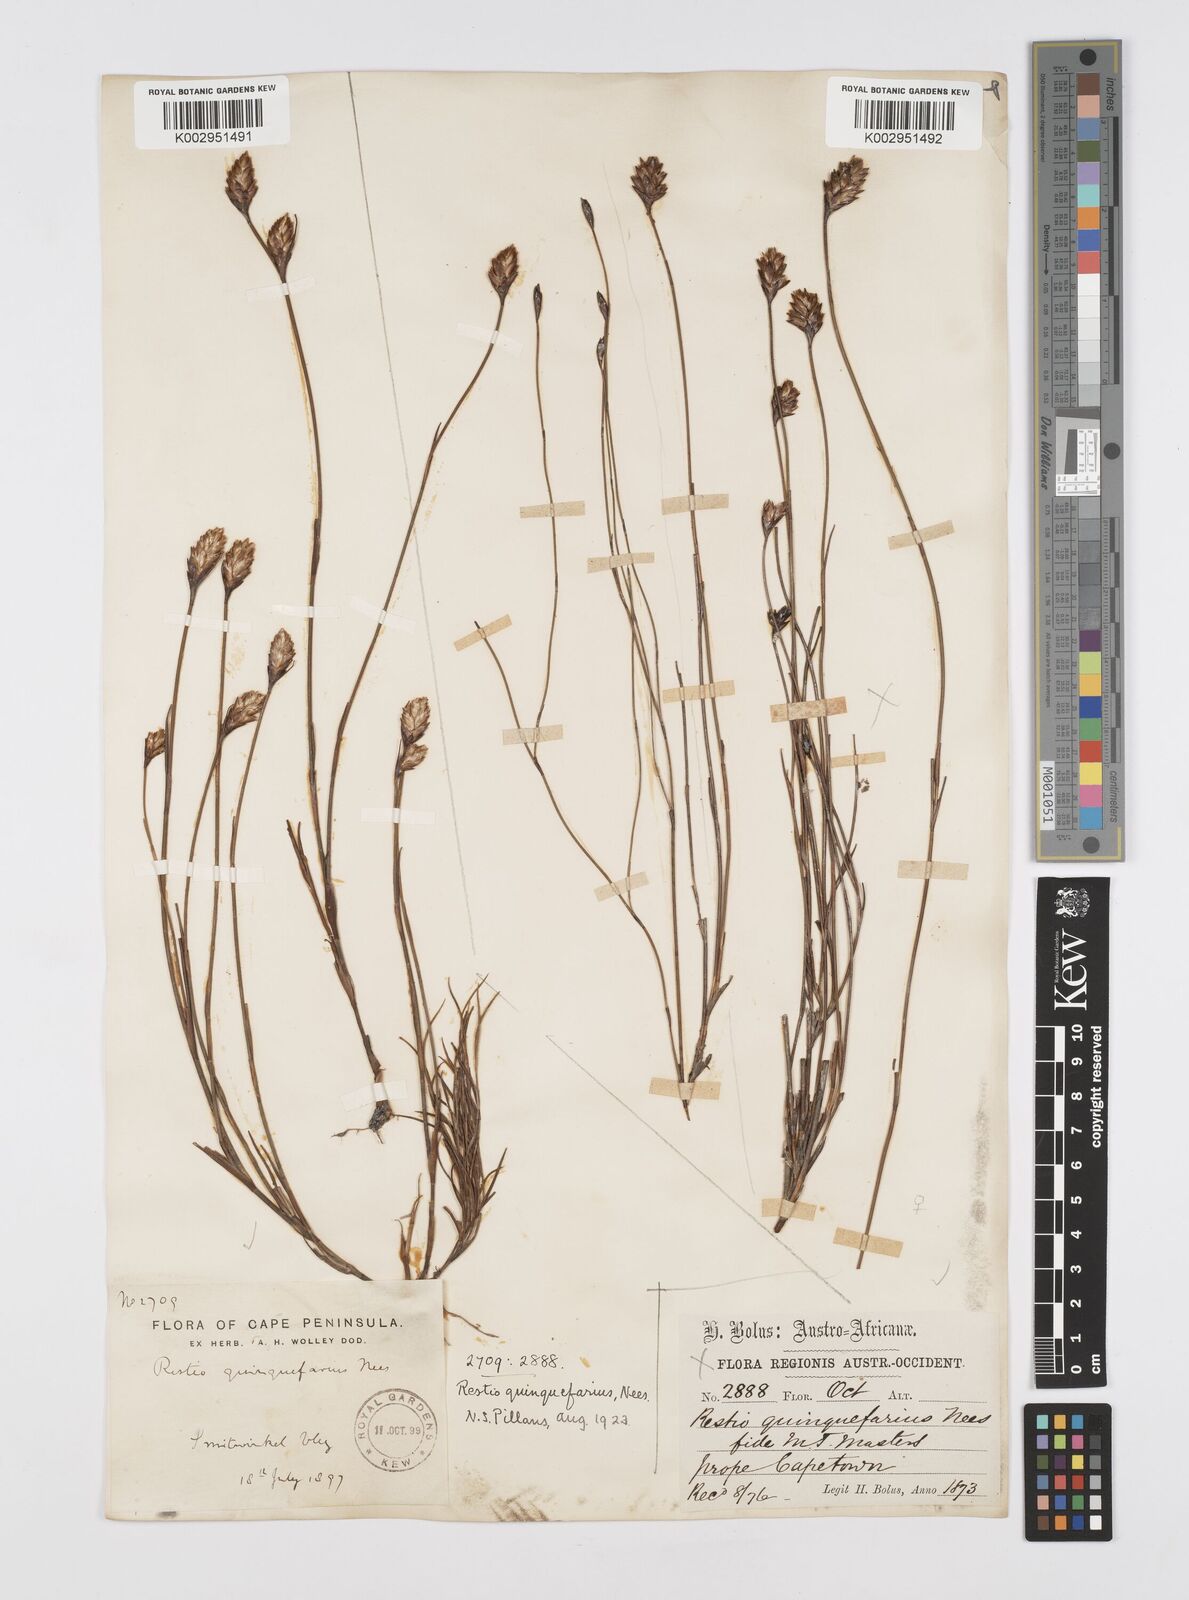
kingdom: Plantae
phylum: Tracheophyta
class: Liliopsida
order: Poales
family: Restionaceae
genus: Restio
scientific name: Restio quinquefarius
